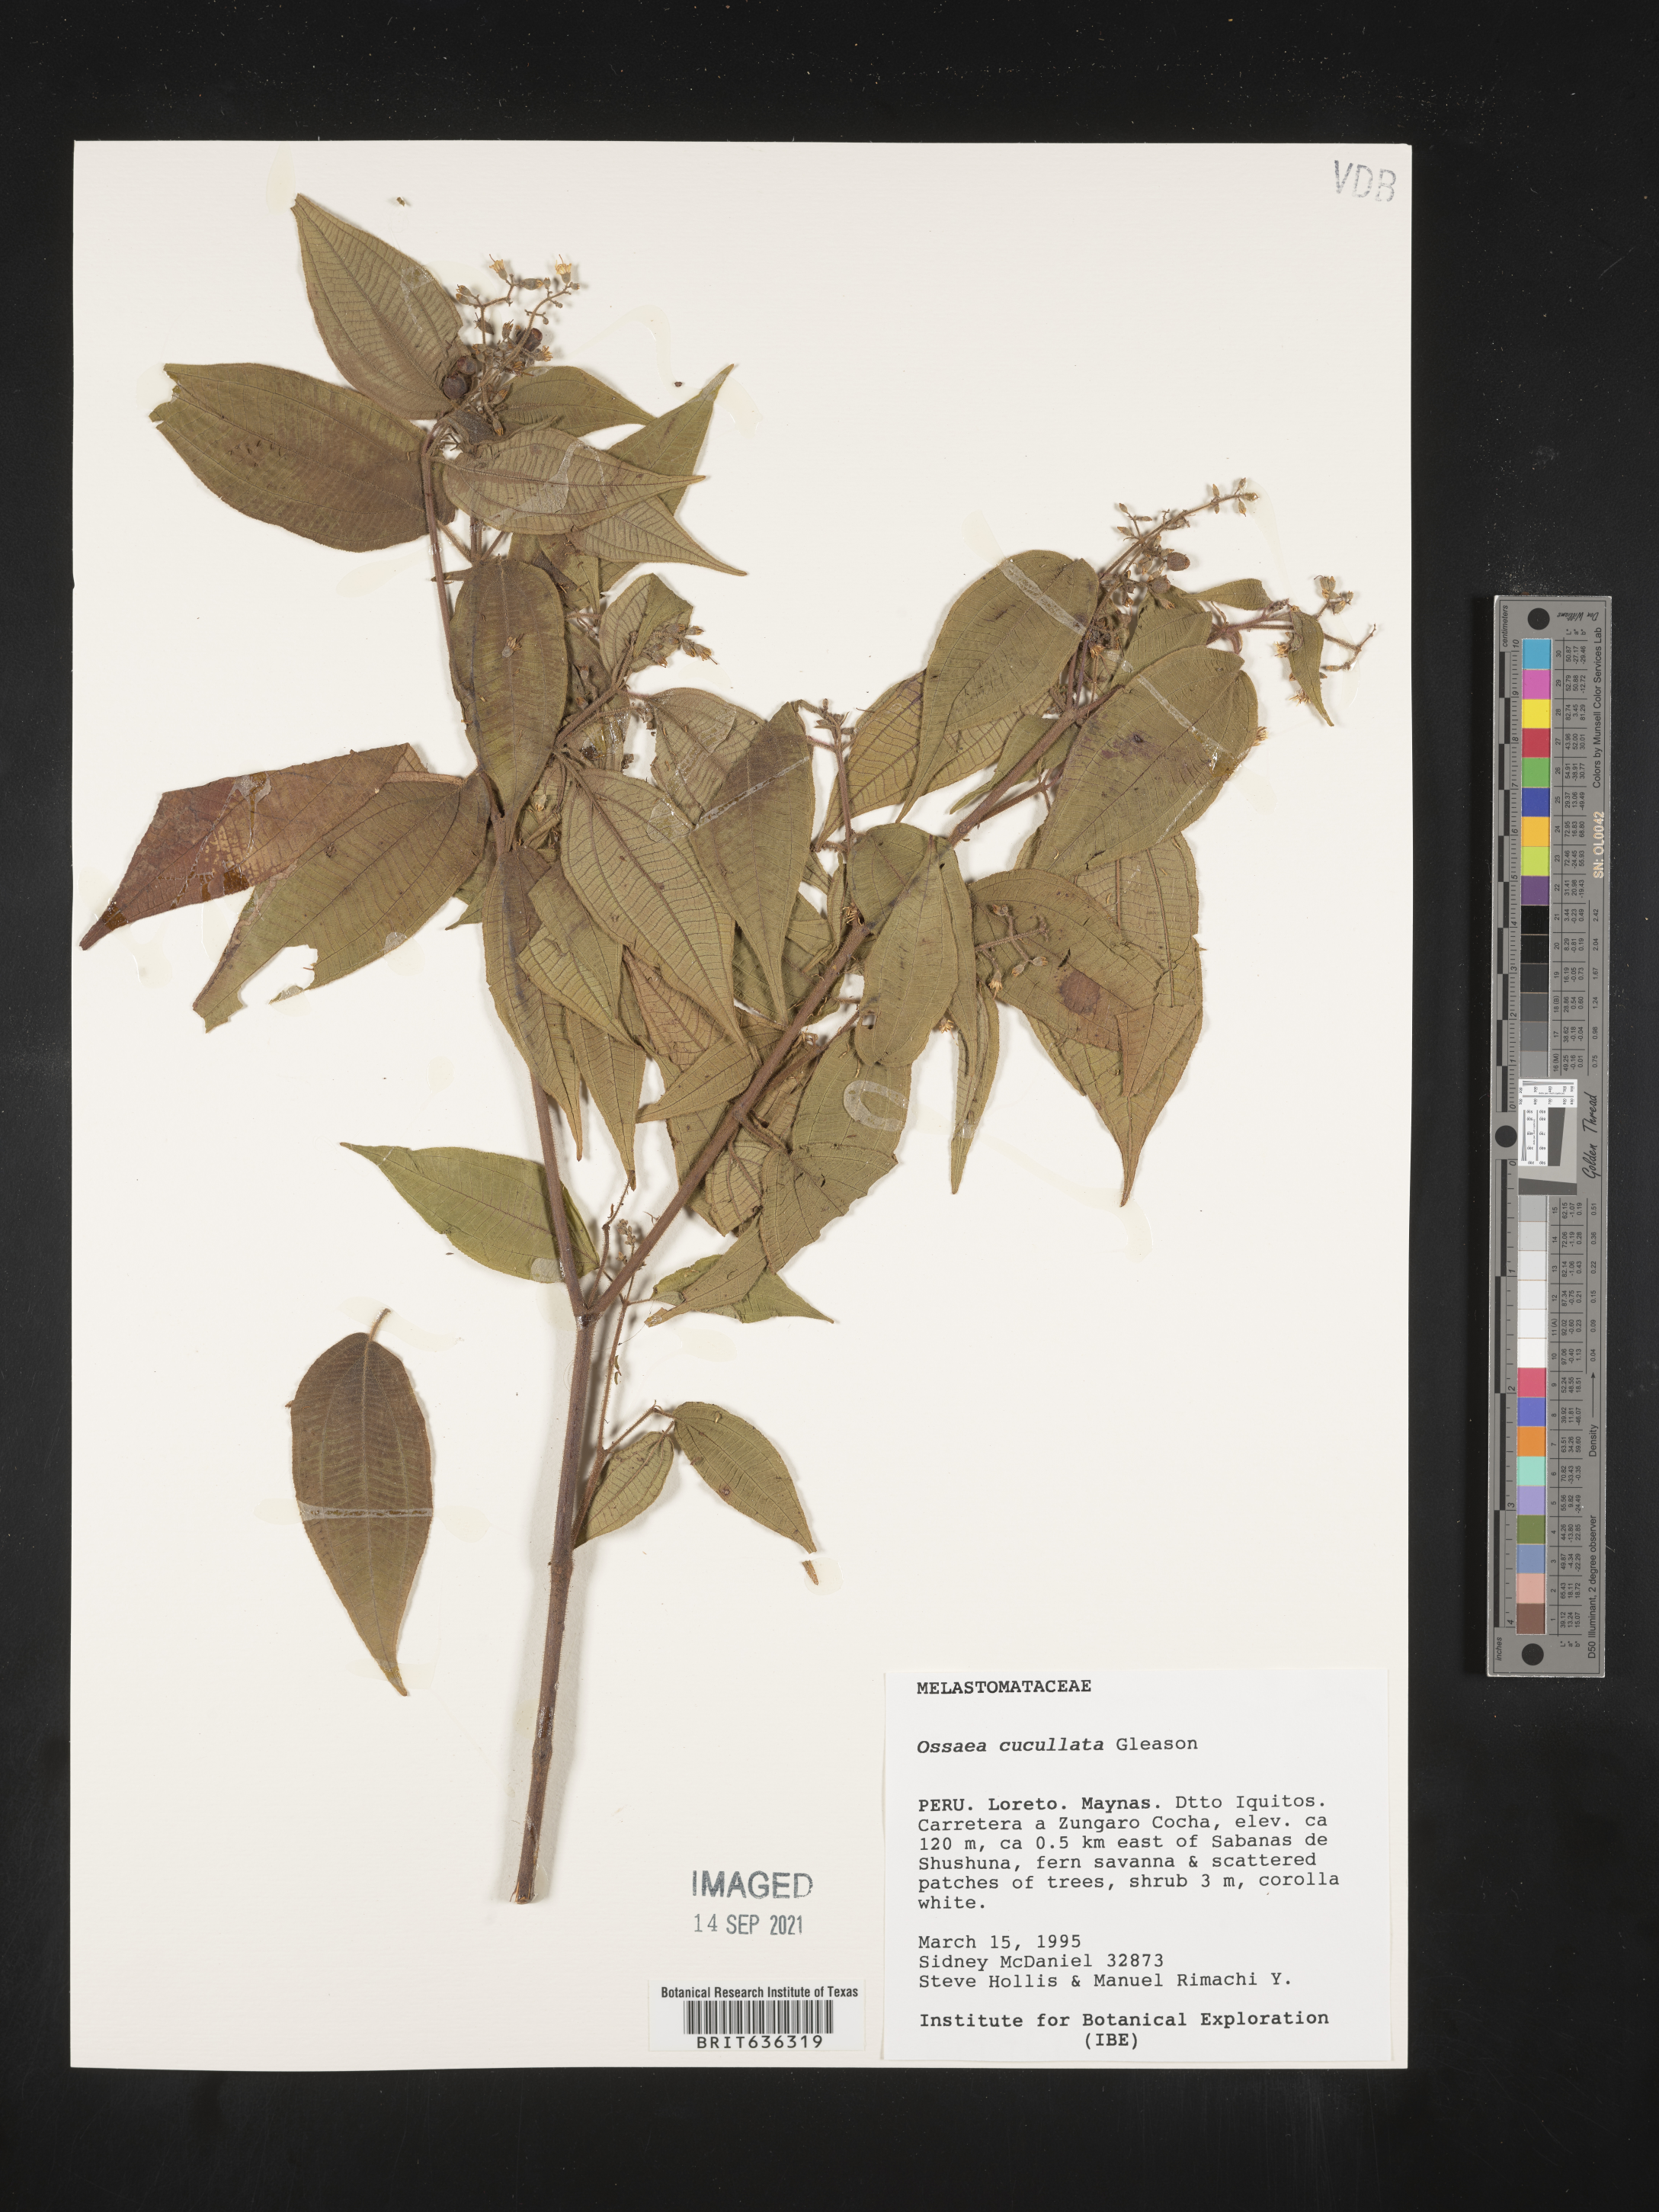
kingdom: Plantae
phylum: Tracheophyta
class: Magnoliopsida
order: Myrtales
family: Melastomataceae
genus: Ossaea
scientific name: Ossaea
